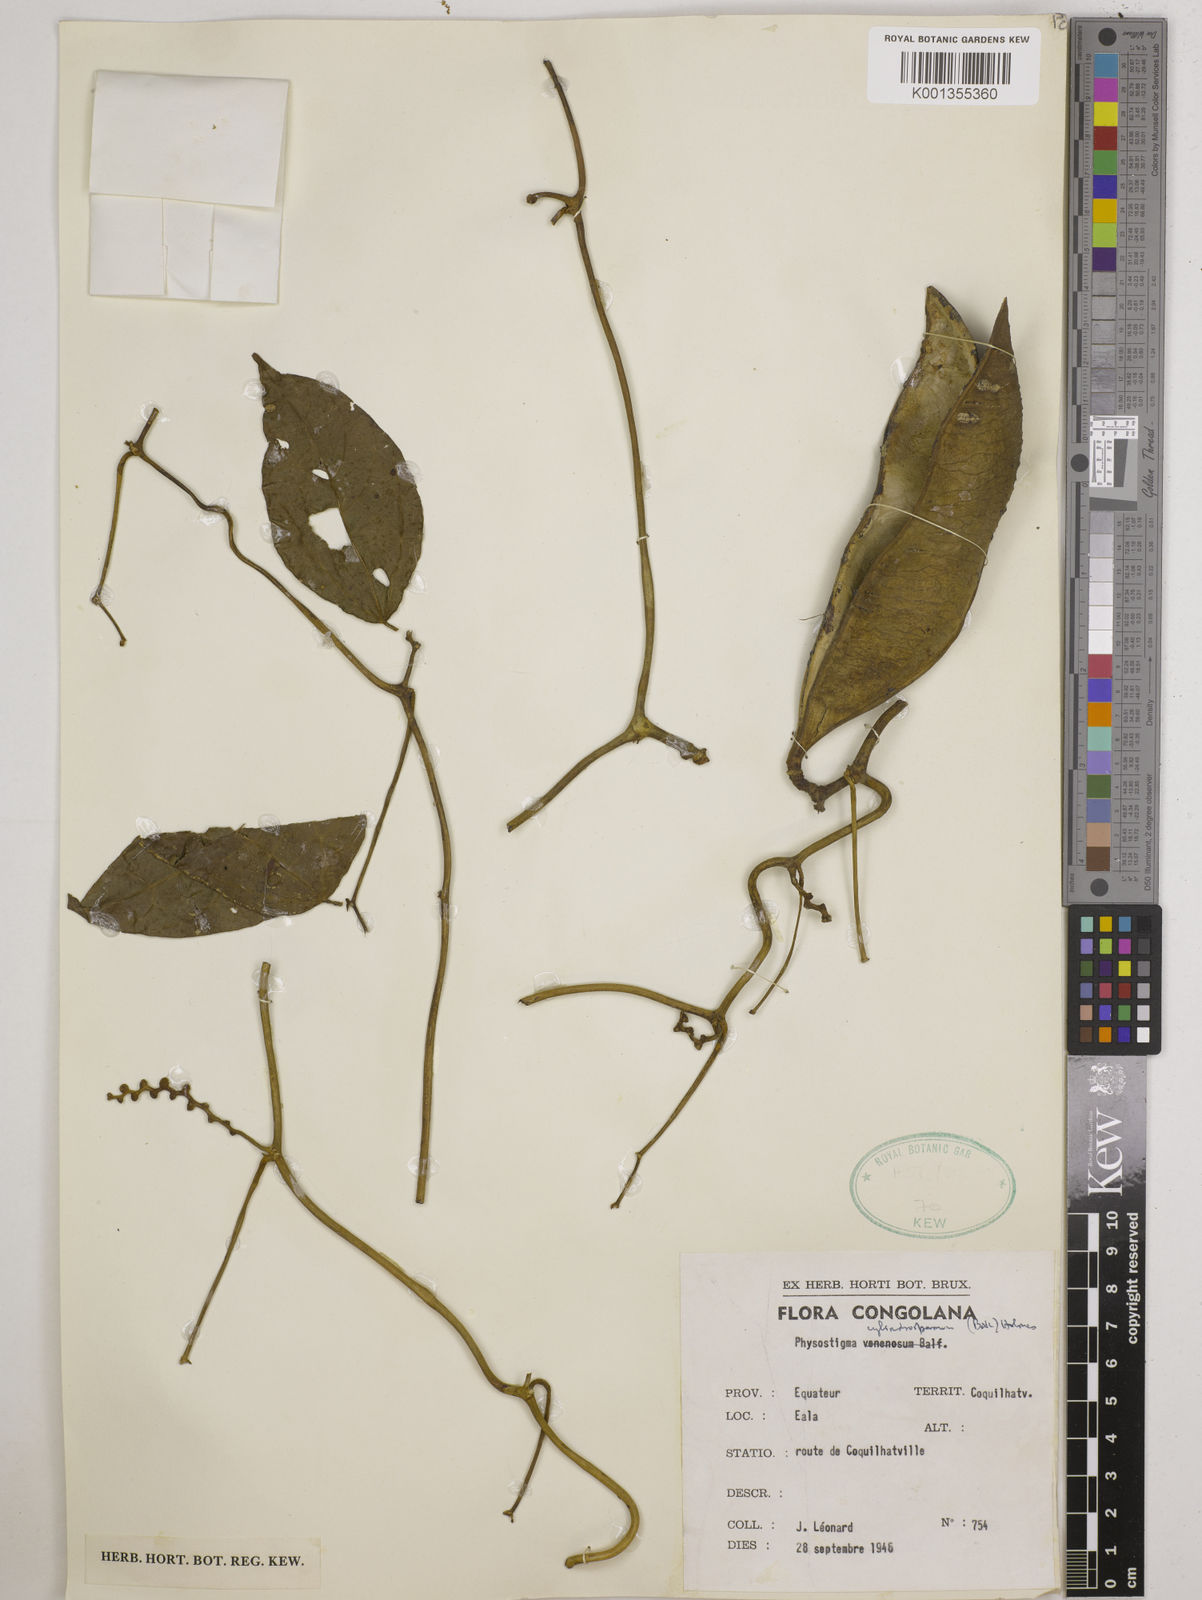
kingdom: Plantae
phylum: Tracheophyta
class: Magnoliopsida
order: Fabales
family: Fabaceae
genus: Physostigma
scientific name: Physostigma cylindrospermum
